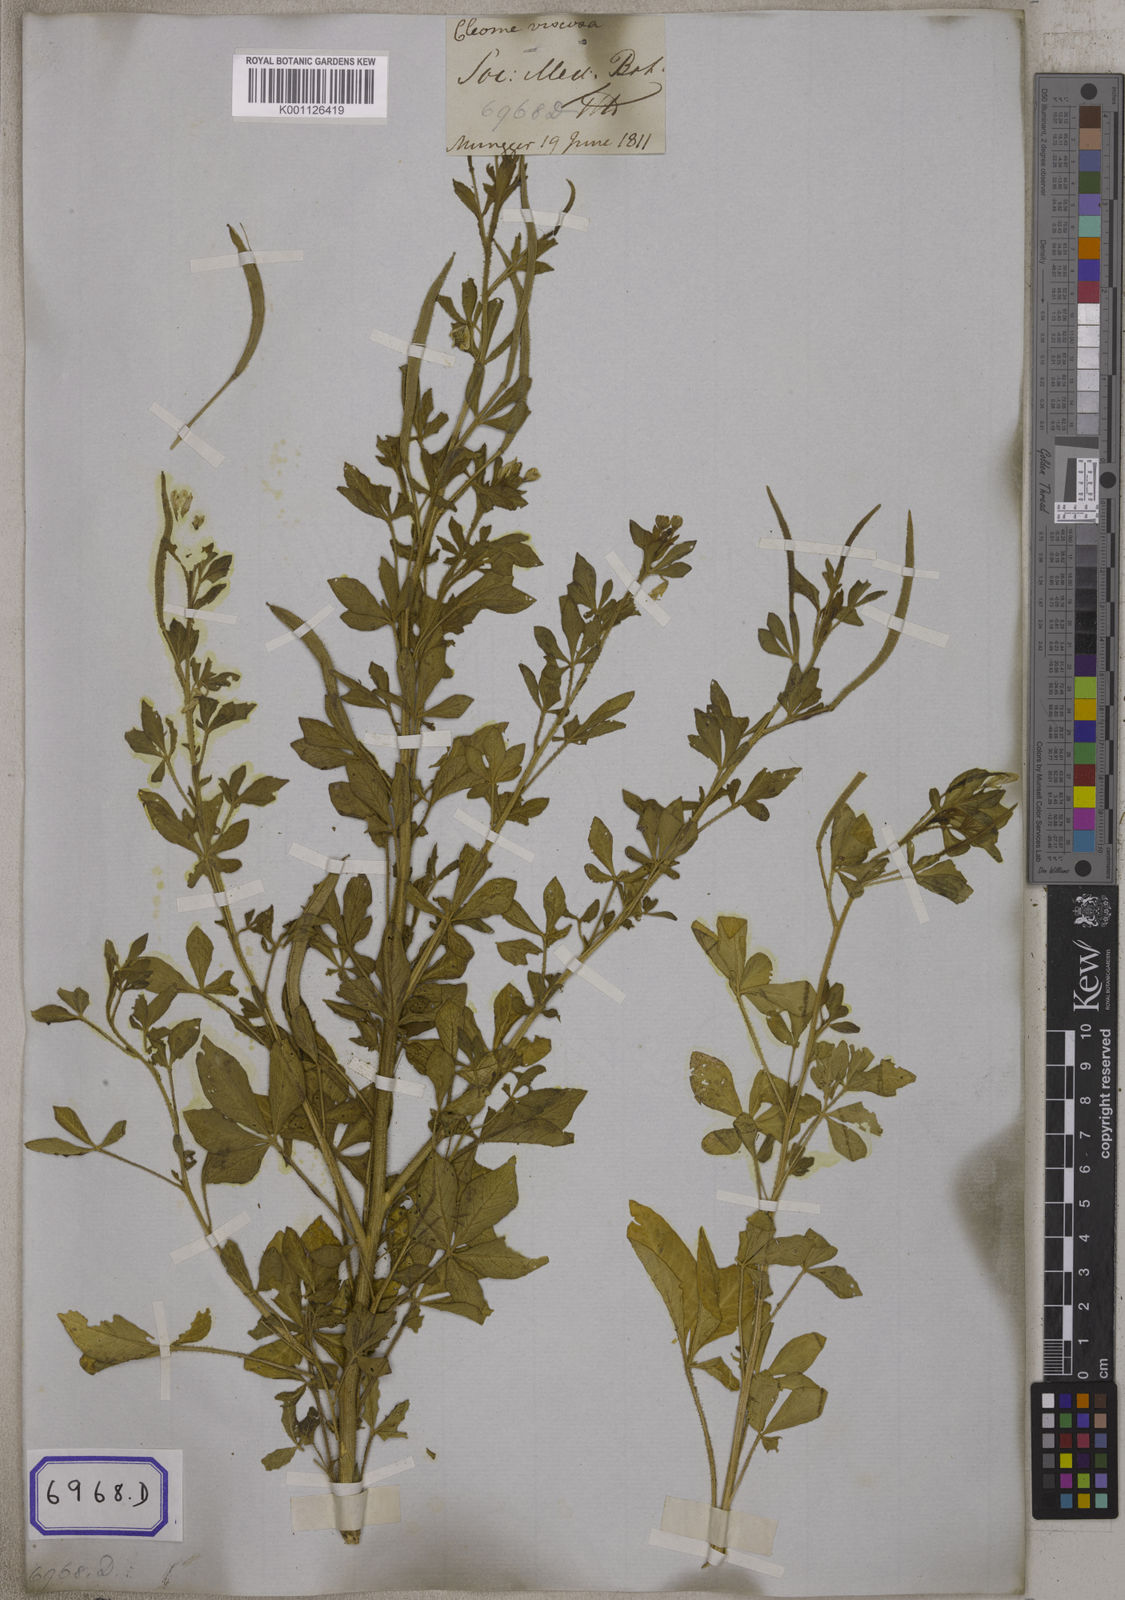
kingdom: Plantae
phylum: Tracheophyta
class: Magnoliopsida
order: Brassicales
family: Cleomaceae
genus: Arivela
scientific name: Arivela viscosa
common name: Asian spiderflower
